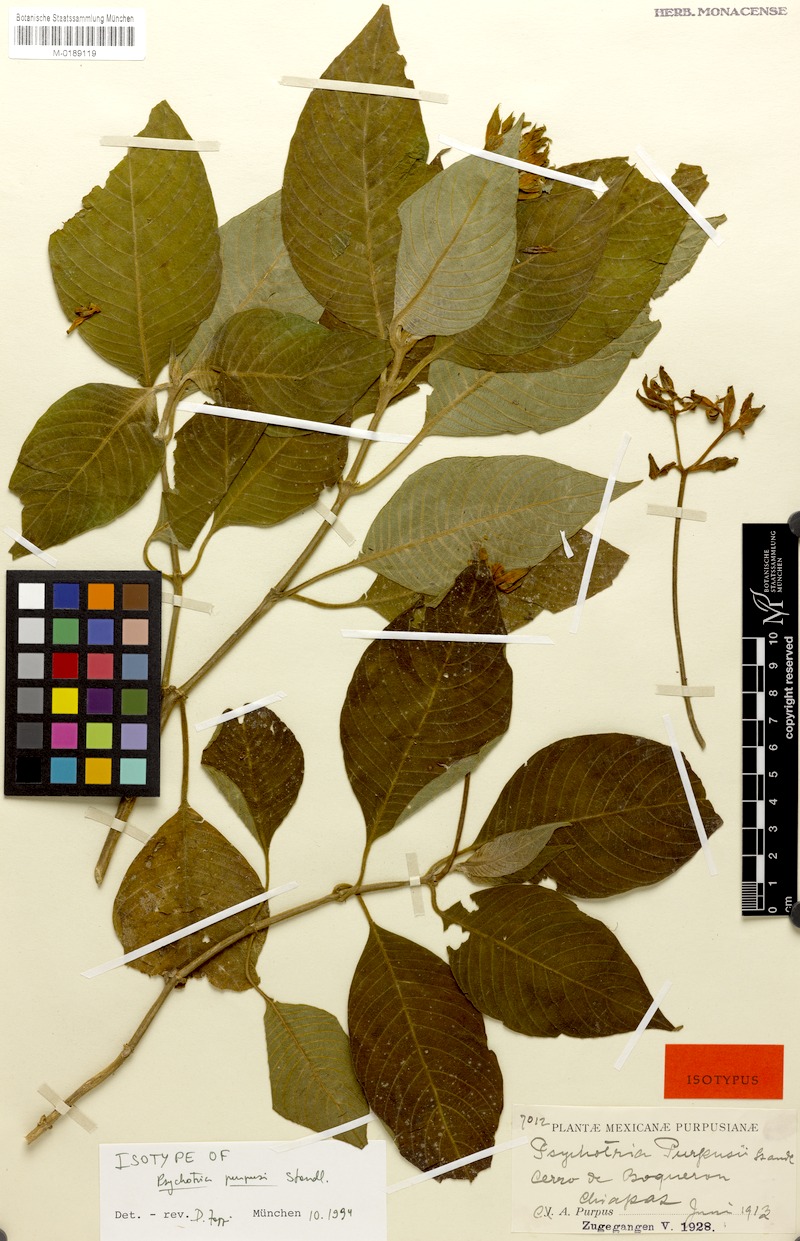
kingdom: Plantae
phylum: Tracheophyta
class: Magnoliopsida
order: Gentianales
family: Rubiaceae
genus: Palicourea
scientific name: Palicourea neopurpusii
